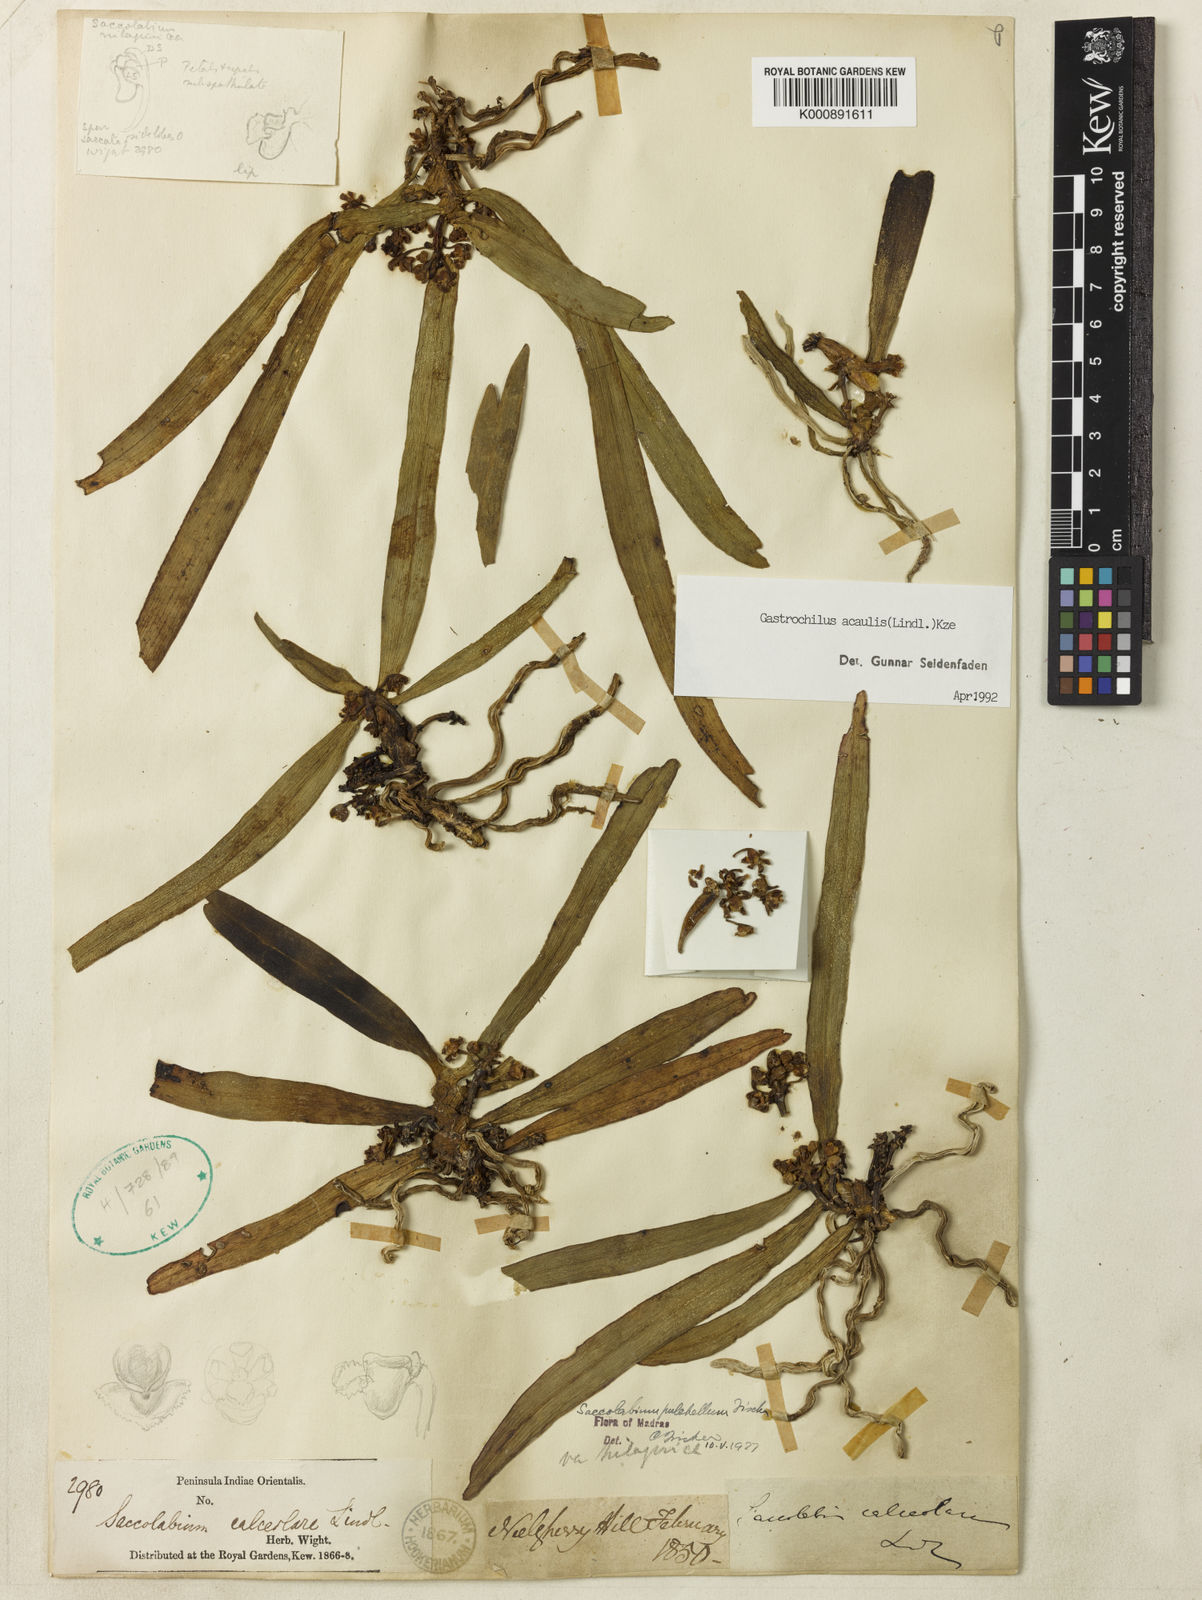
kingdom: Plantae
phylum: Tracheophyta
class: Liliopsida
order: Asparagales
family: Orchidaceae
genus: Gastrochilus
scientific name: Gastrochilus acaulis
